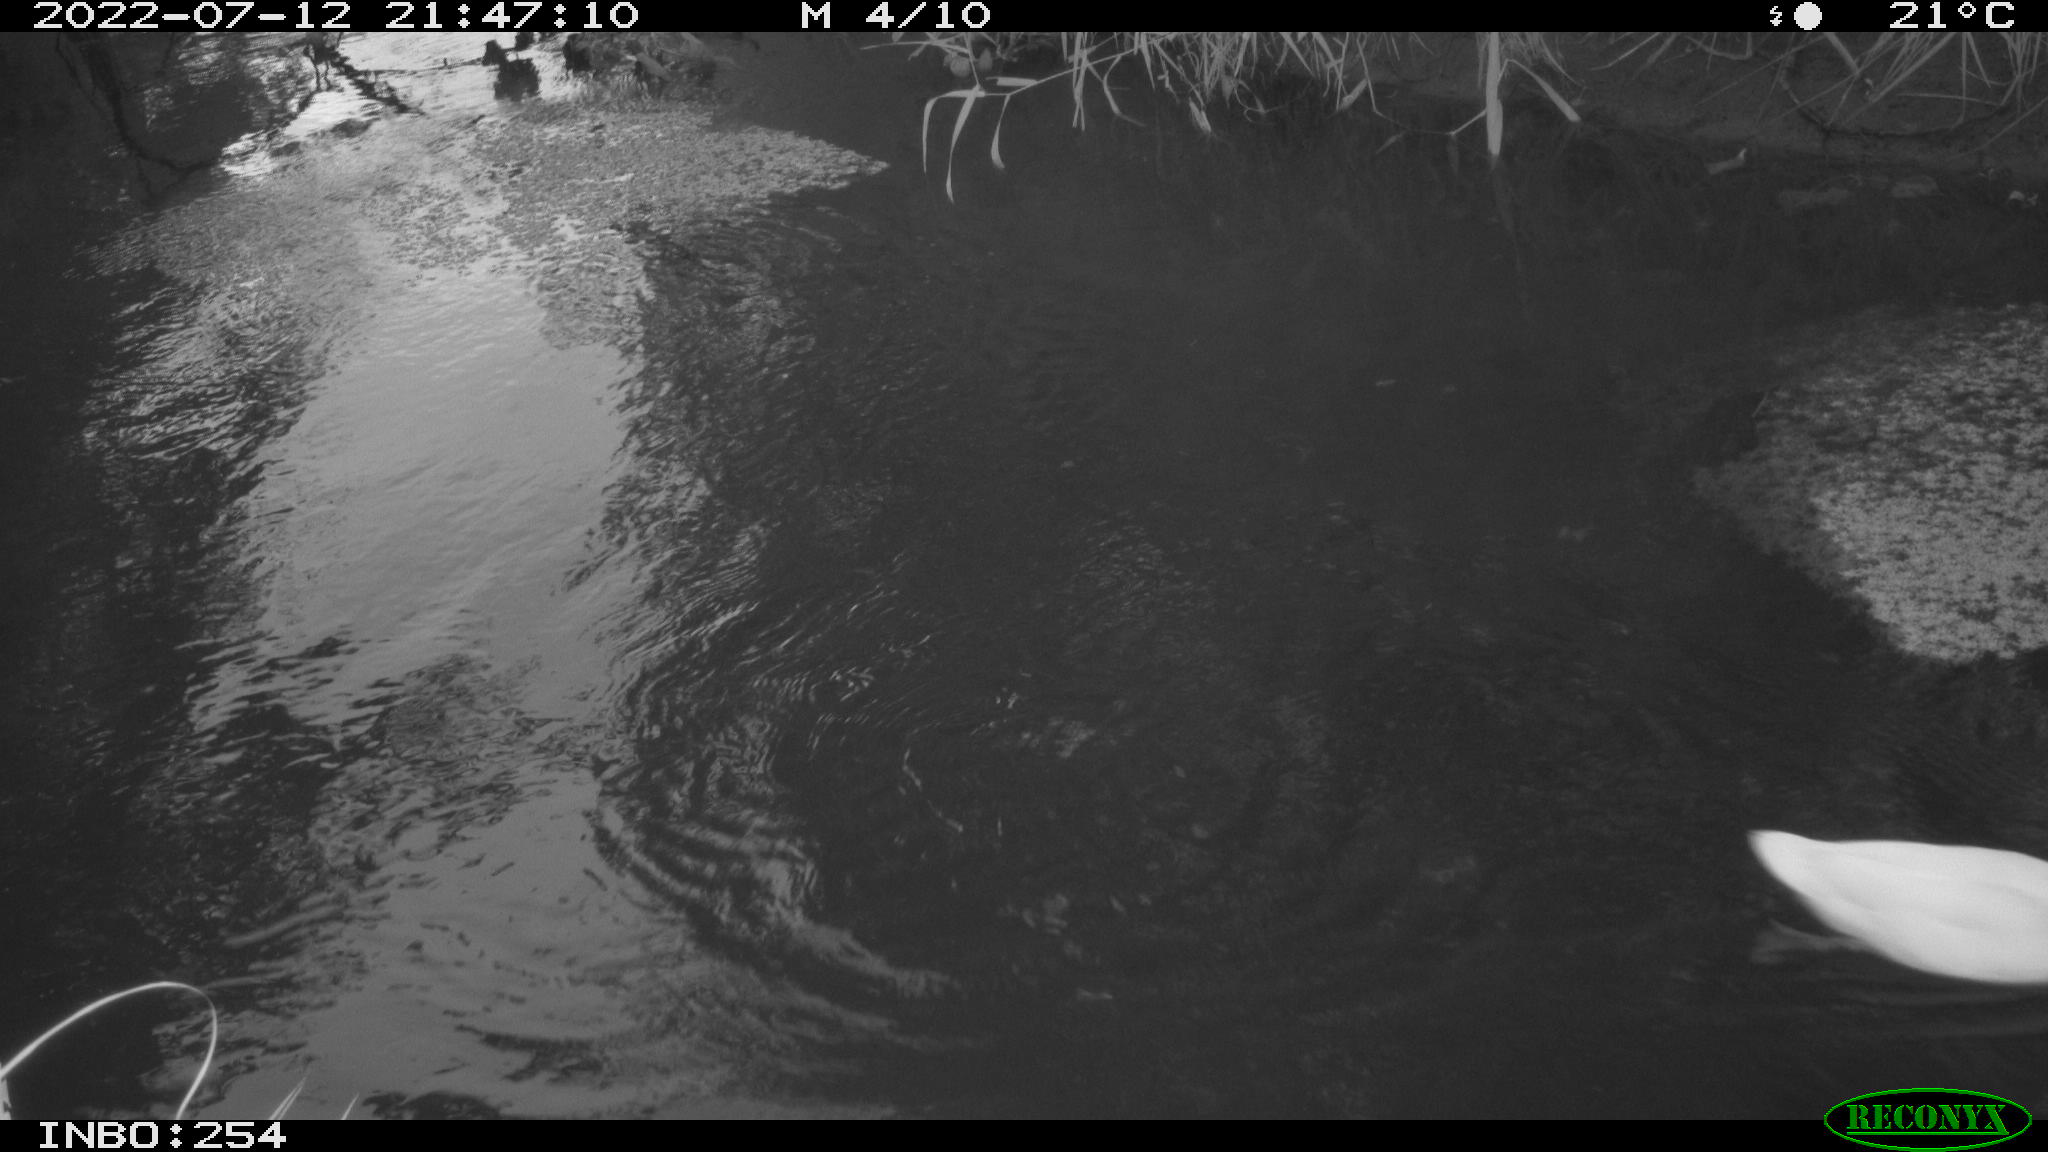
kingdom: Animalia
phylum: Chordata
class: Aves
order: Anseriformes
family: Anatidae
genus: Anas
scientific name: Anas platyrhynchos
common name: Mallard
